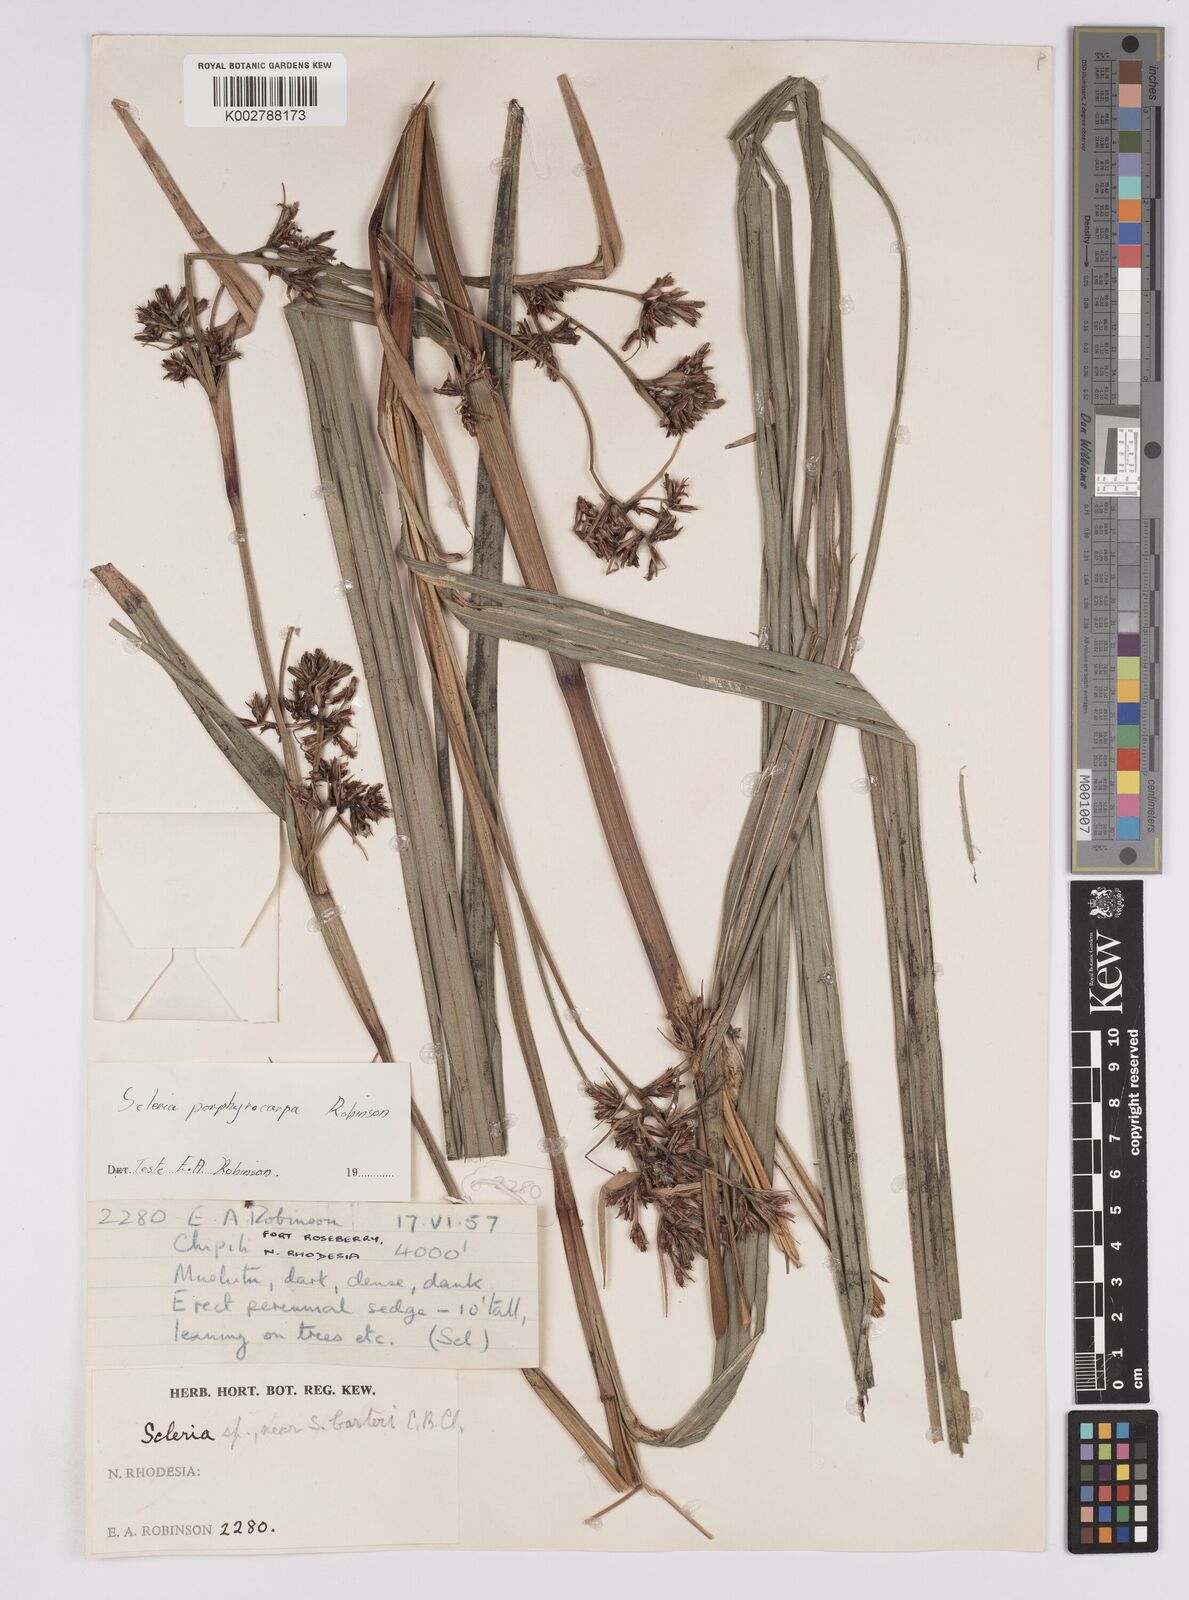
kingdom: Plantae
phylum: Tracheophyta
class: Liliopsida
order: Poales
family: Cyperaceae
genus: Scleria
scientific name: Scleria porphyrocarpa
